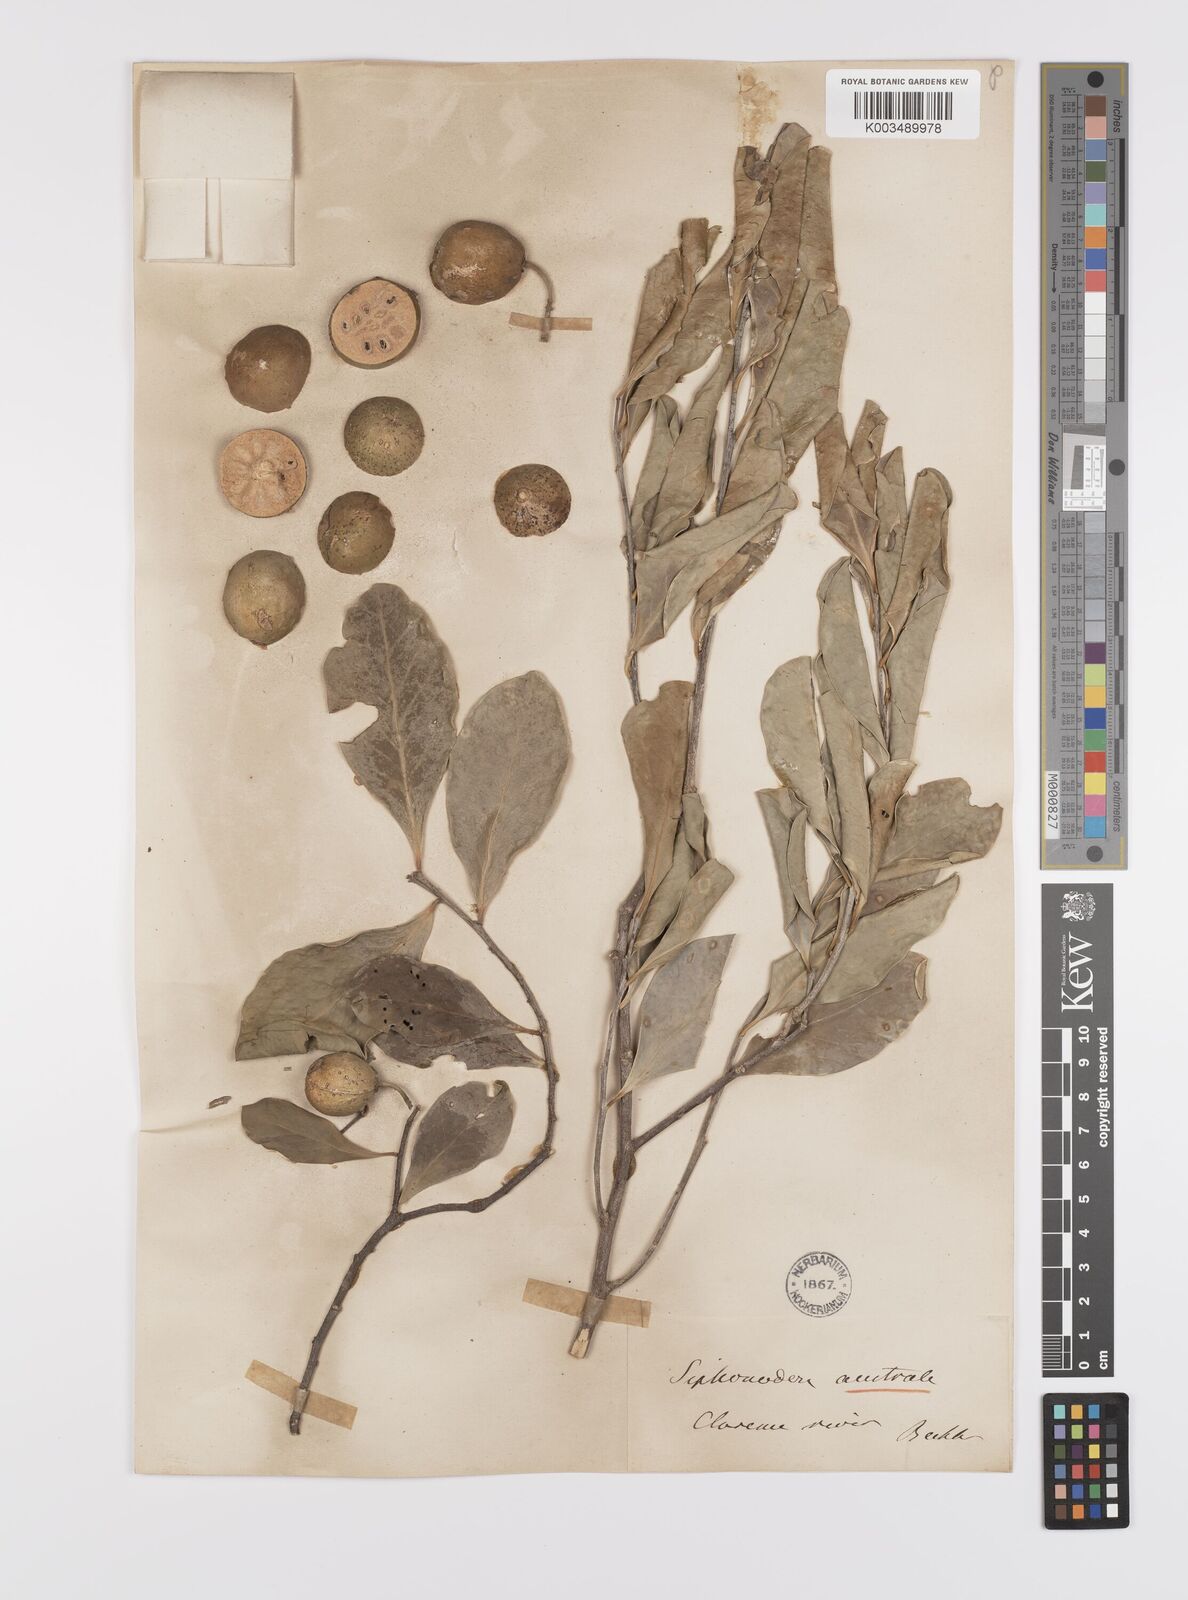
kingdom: Plantae
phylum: Tracheophyta
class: Magnoliopsida
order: Celastrales
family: Celastraceae
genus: Siphonodon
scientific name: Siphonodon australis
